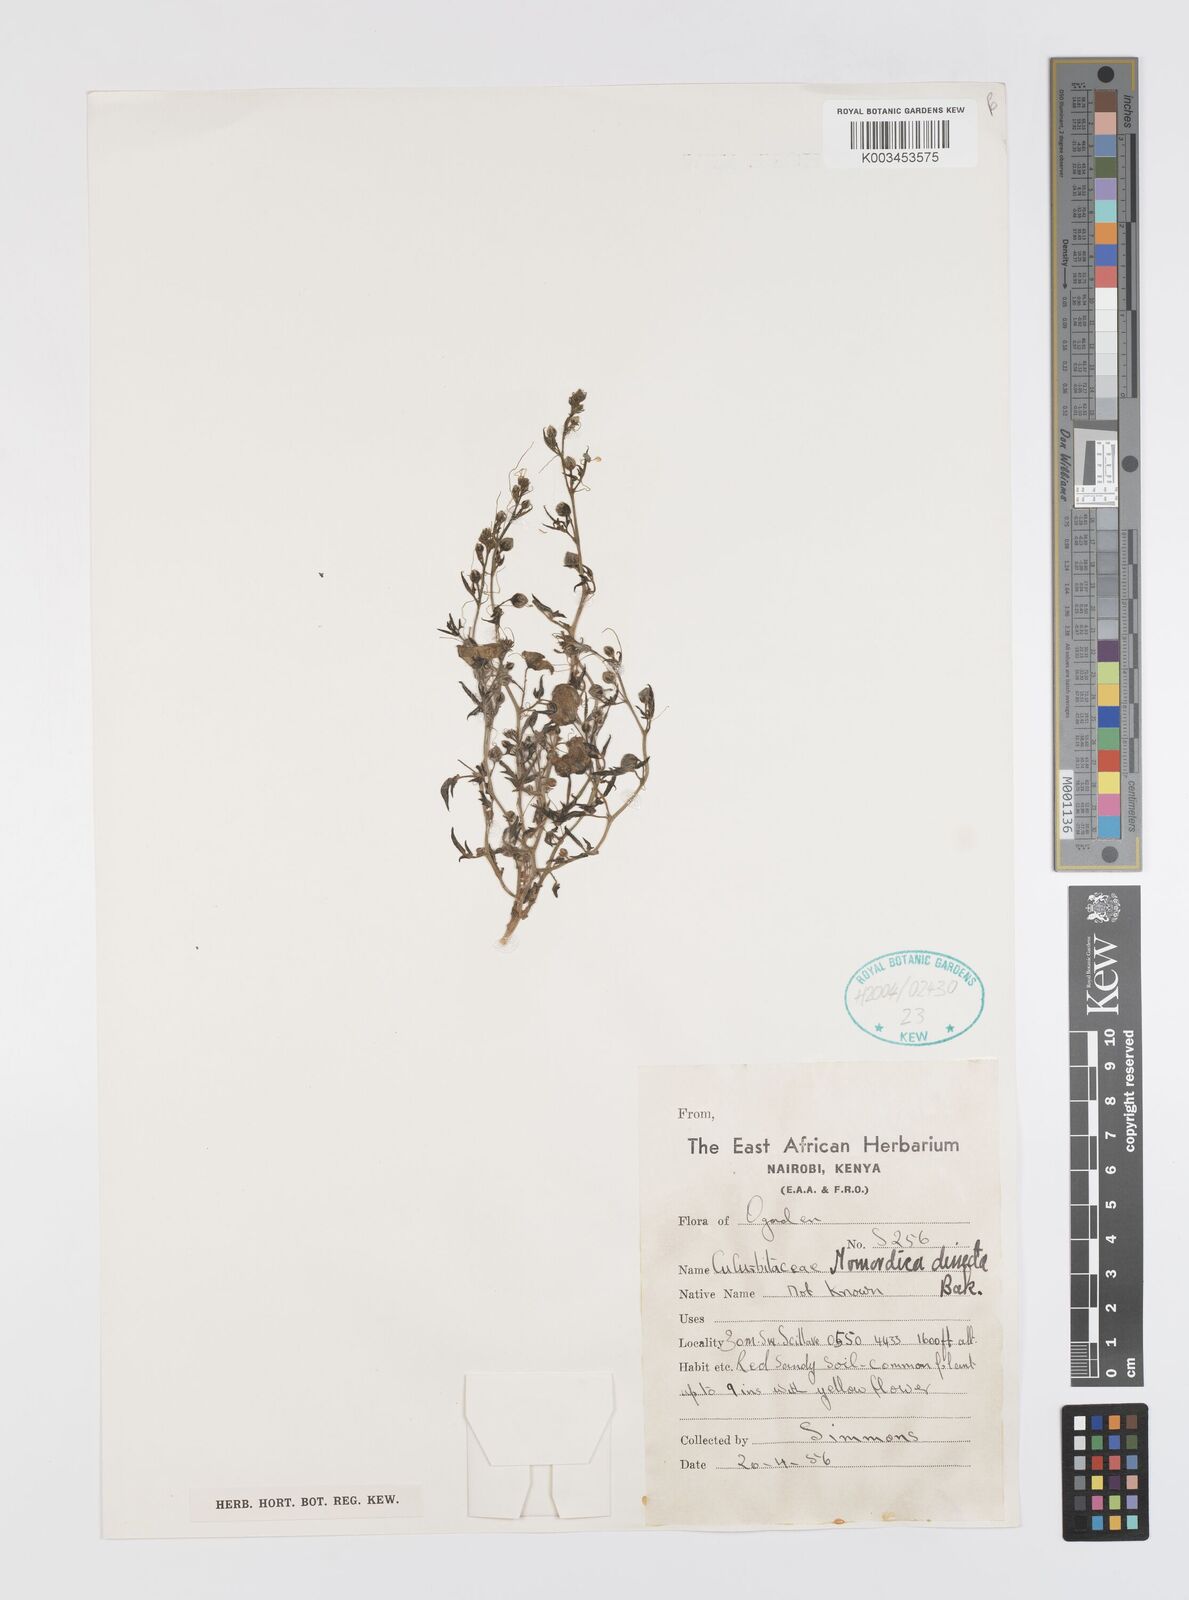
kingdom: Plantae
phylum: Tracheophyta
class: Magnoliopsida
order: Cucurbitales
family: Cucurbitaceae
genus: Momordica
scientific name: Momordica dissecta
